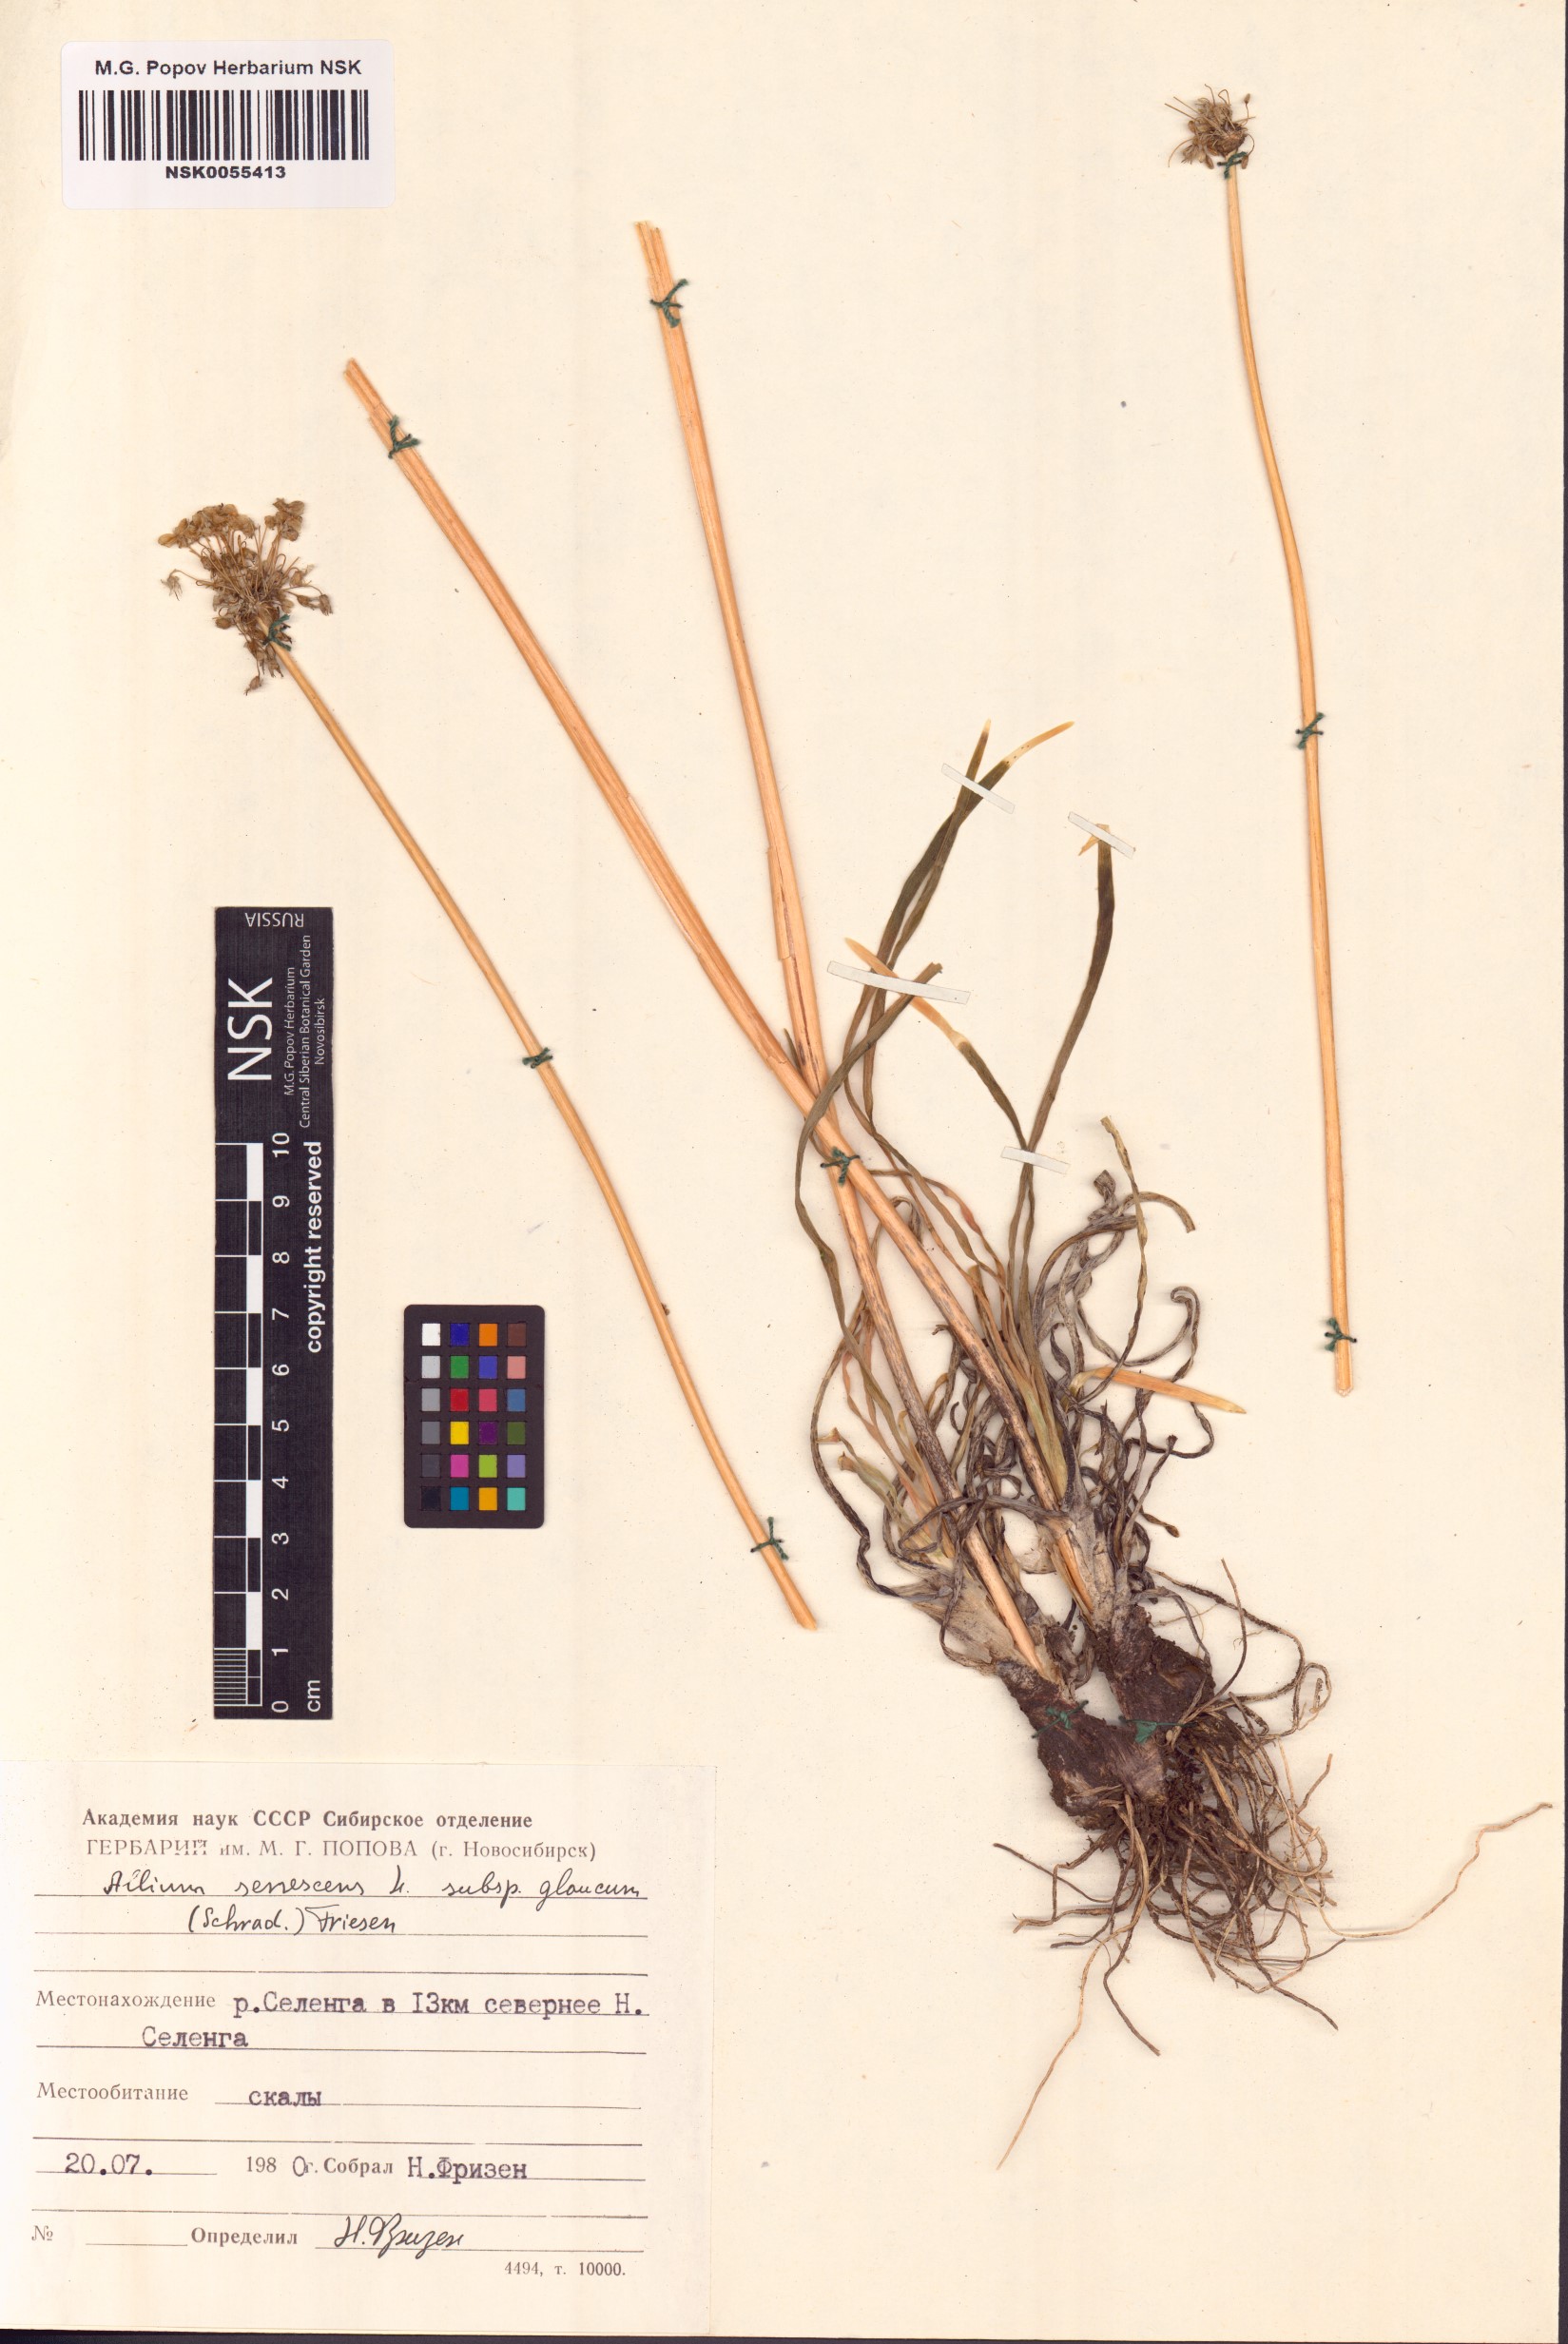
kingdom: Plantae
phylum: Tracheophyta
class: Liliopsida
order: Asparagales
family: Amaryllidaceae
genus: Allium
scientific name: Allium senescens
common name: German garlic
